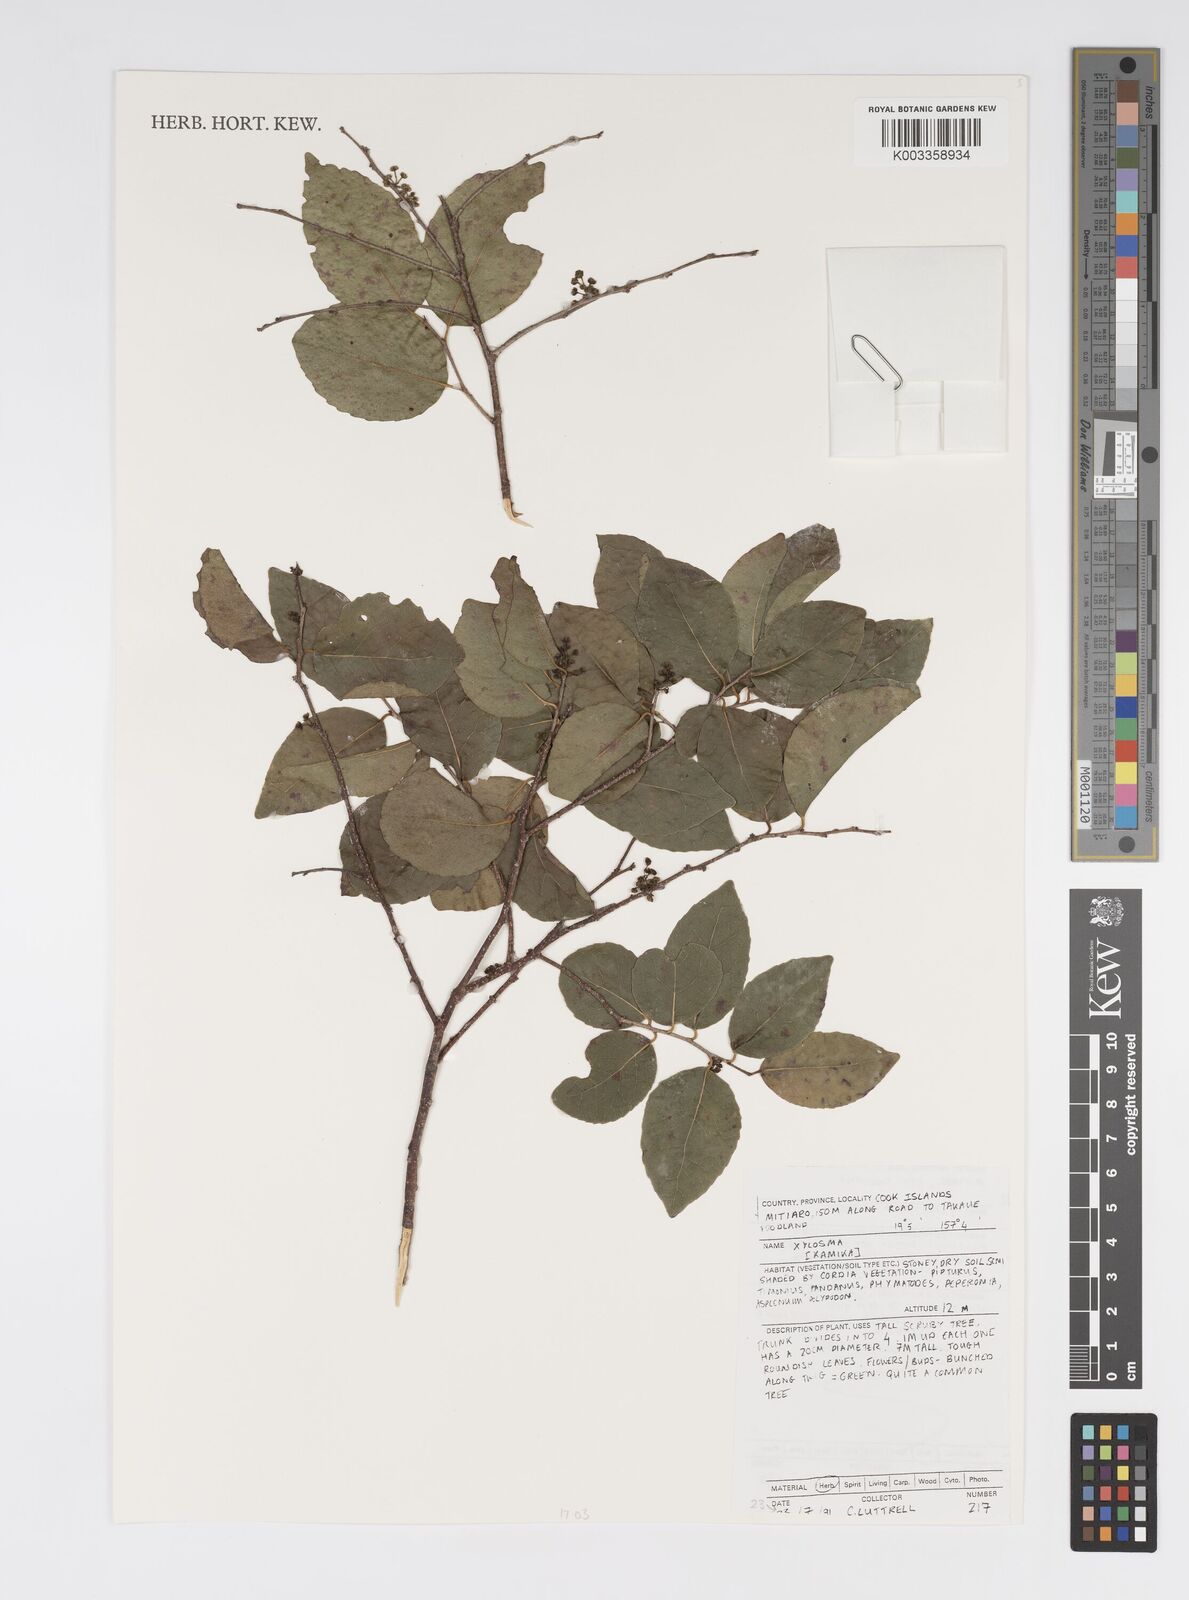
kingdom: Plantae
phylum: Tracheophyta
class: Magnoliopsida
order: Malpighiales
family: Salicaceae
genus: Xylosma
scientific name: Xylosma
